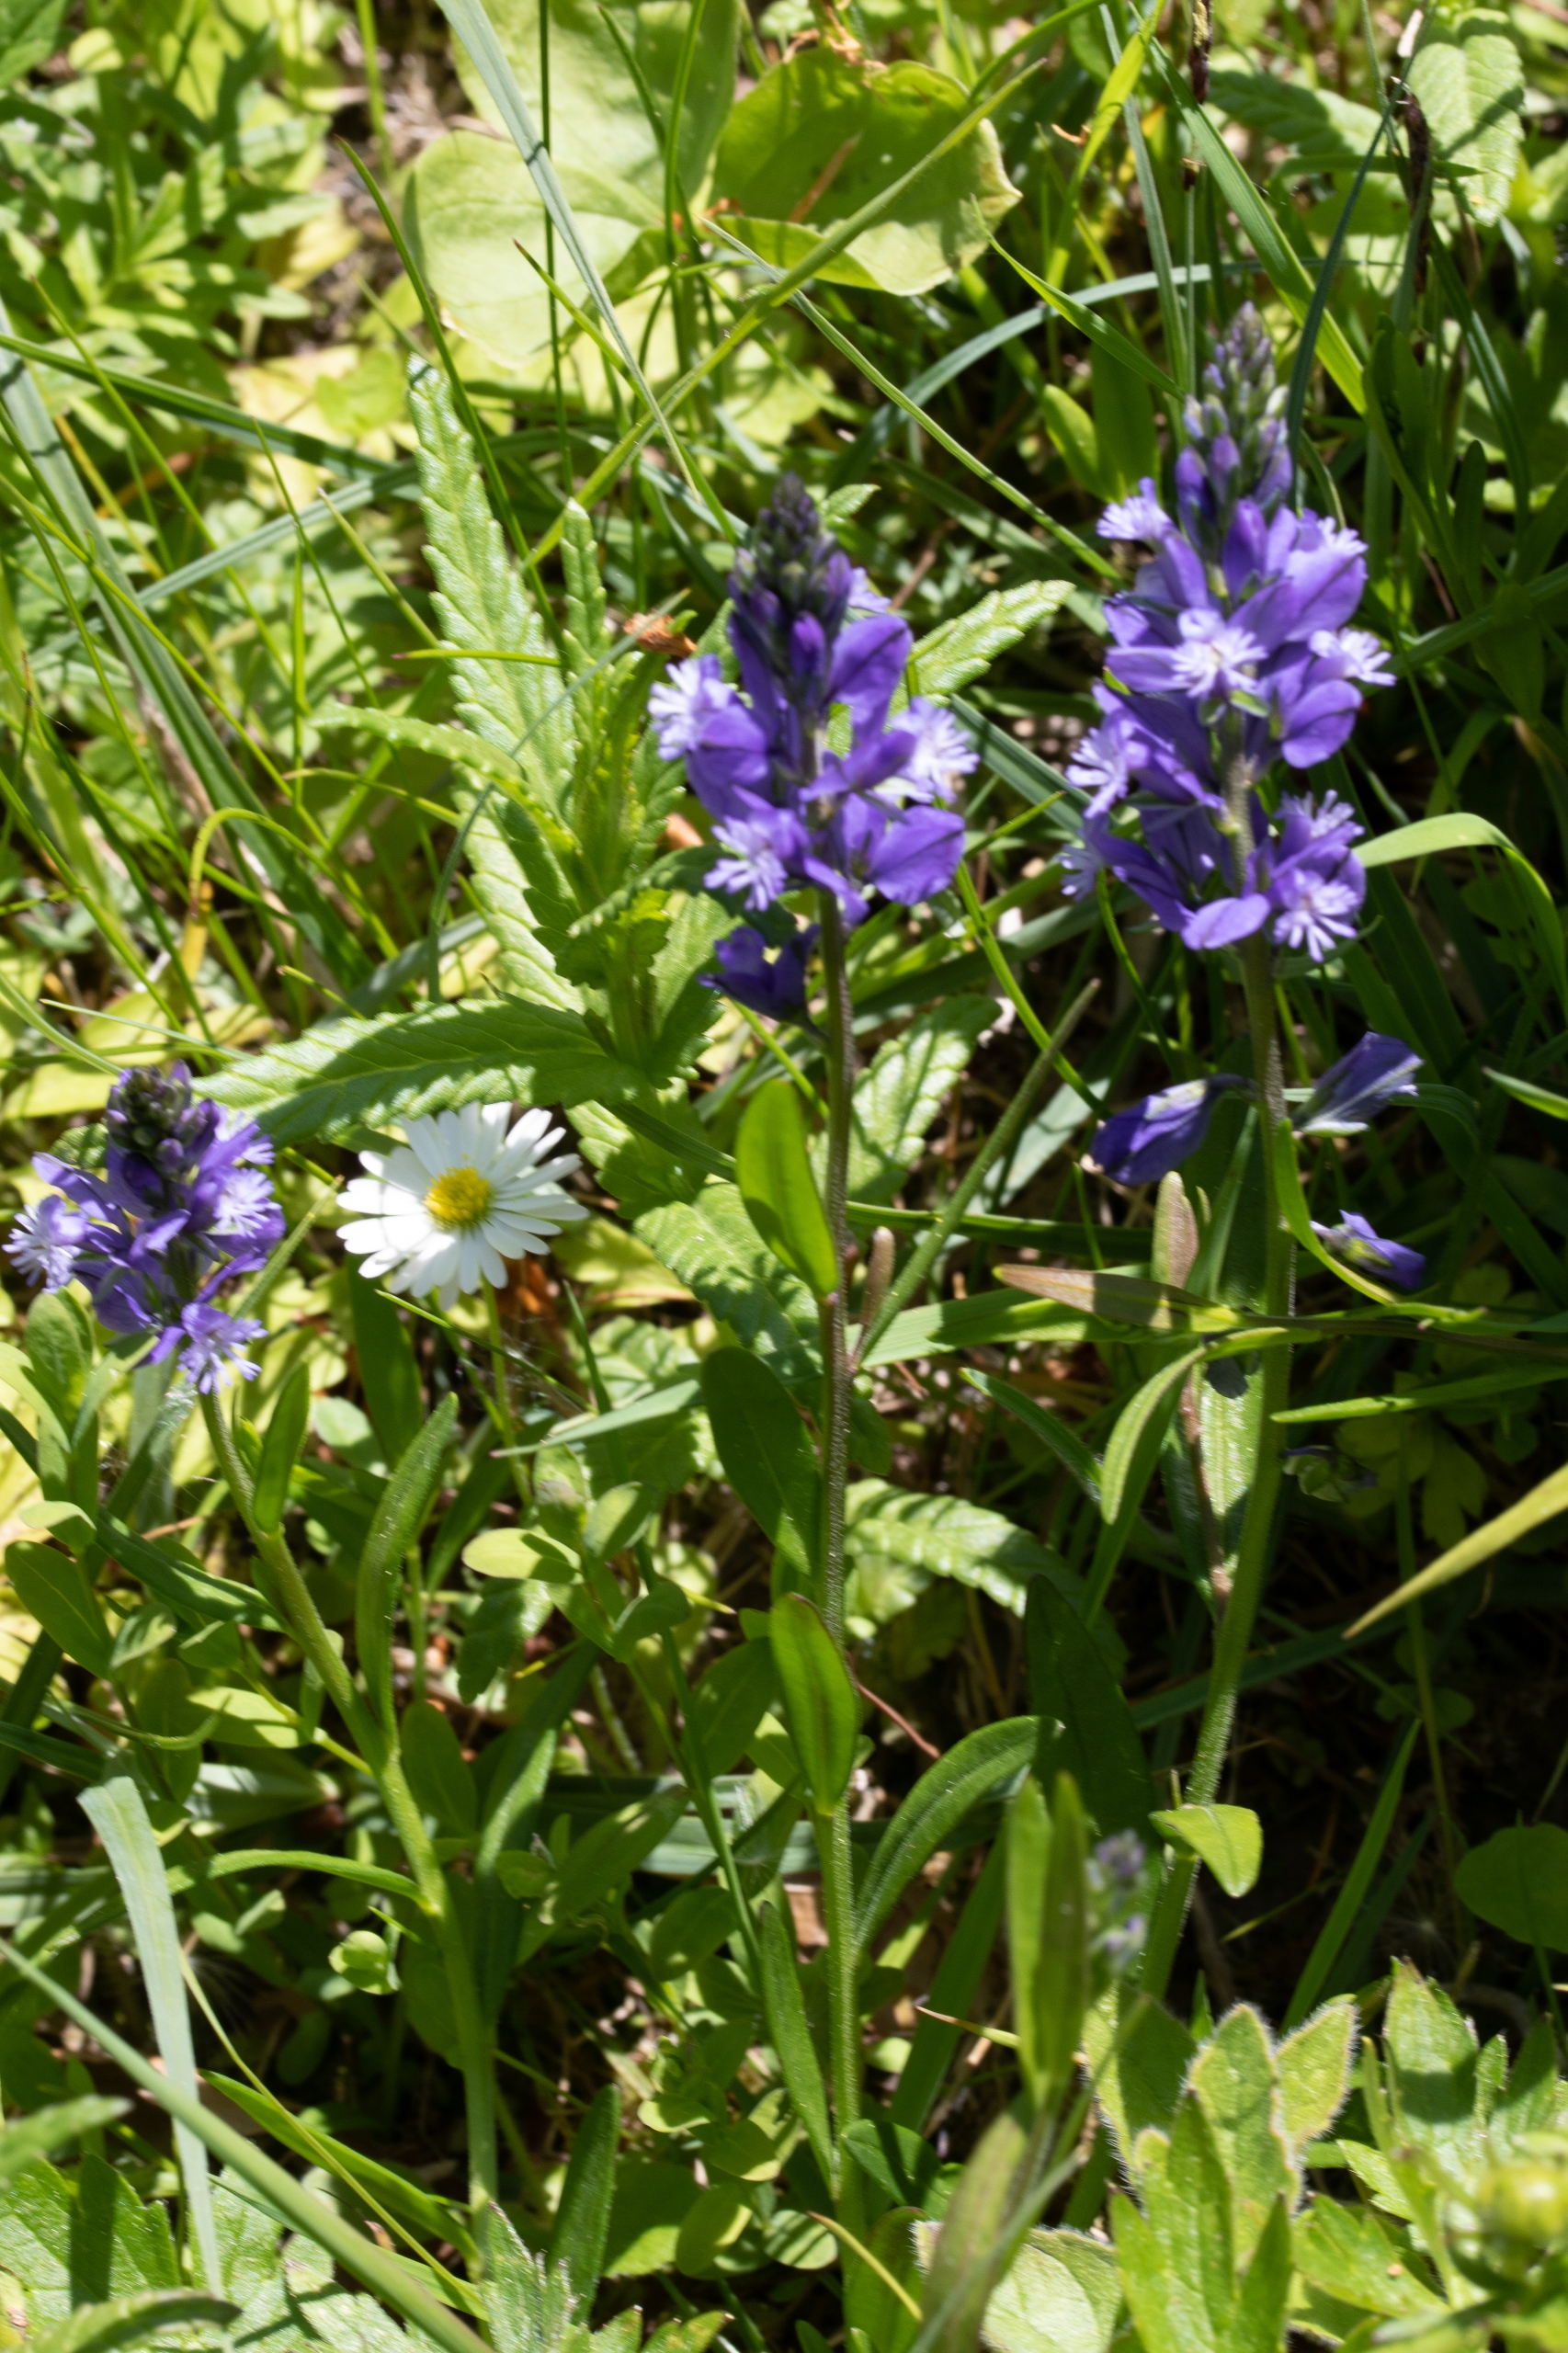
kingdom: Plantae
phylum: Tracheophyta
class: Magnoliopsida
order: Fabales
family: Polygalaceae
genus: Polygala
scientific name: Polygala vulgaris
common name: Almindelig mælkeurt
